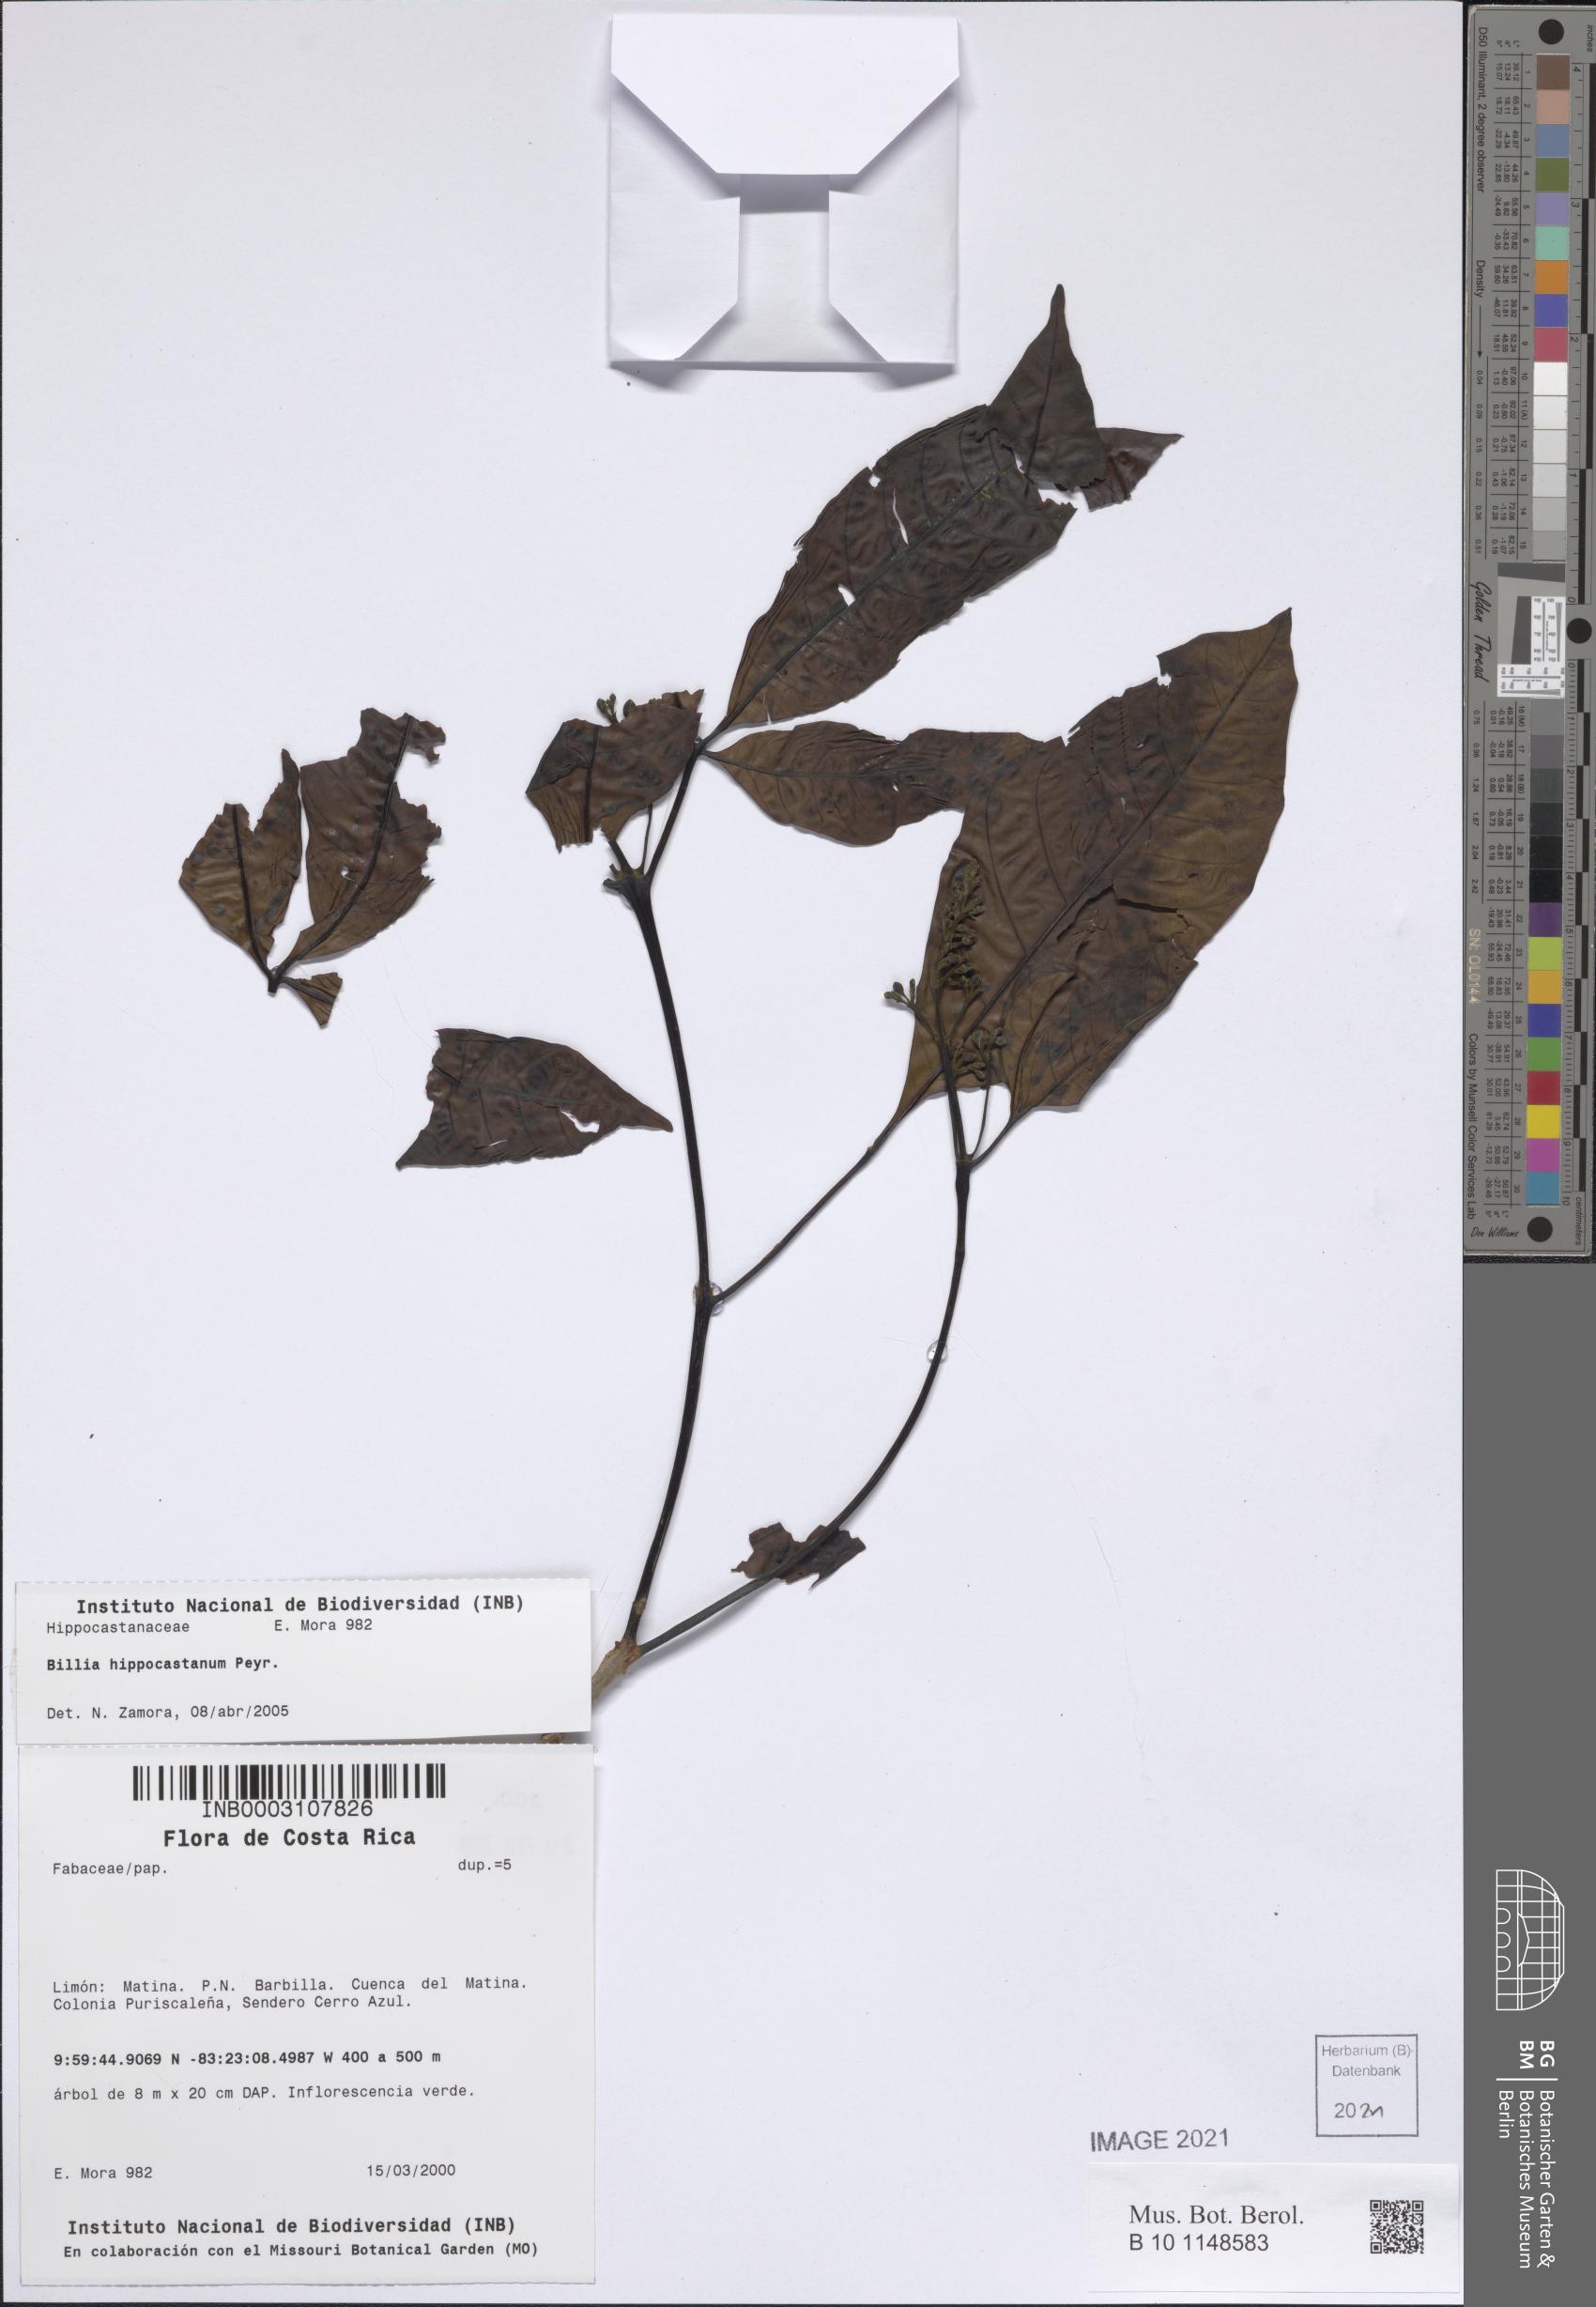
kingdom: Plantae
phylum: Tracheophyta
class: Magnoliopsida
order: Sapindales
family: Sapindaceae
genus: Billia
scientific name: Billia rosea
